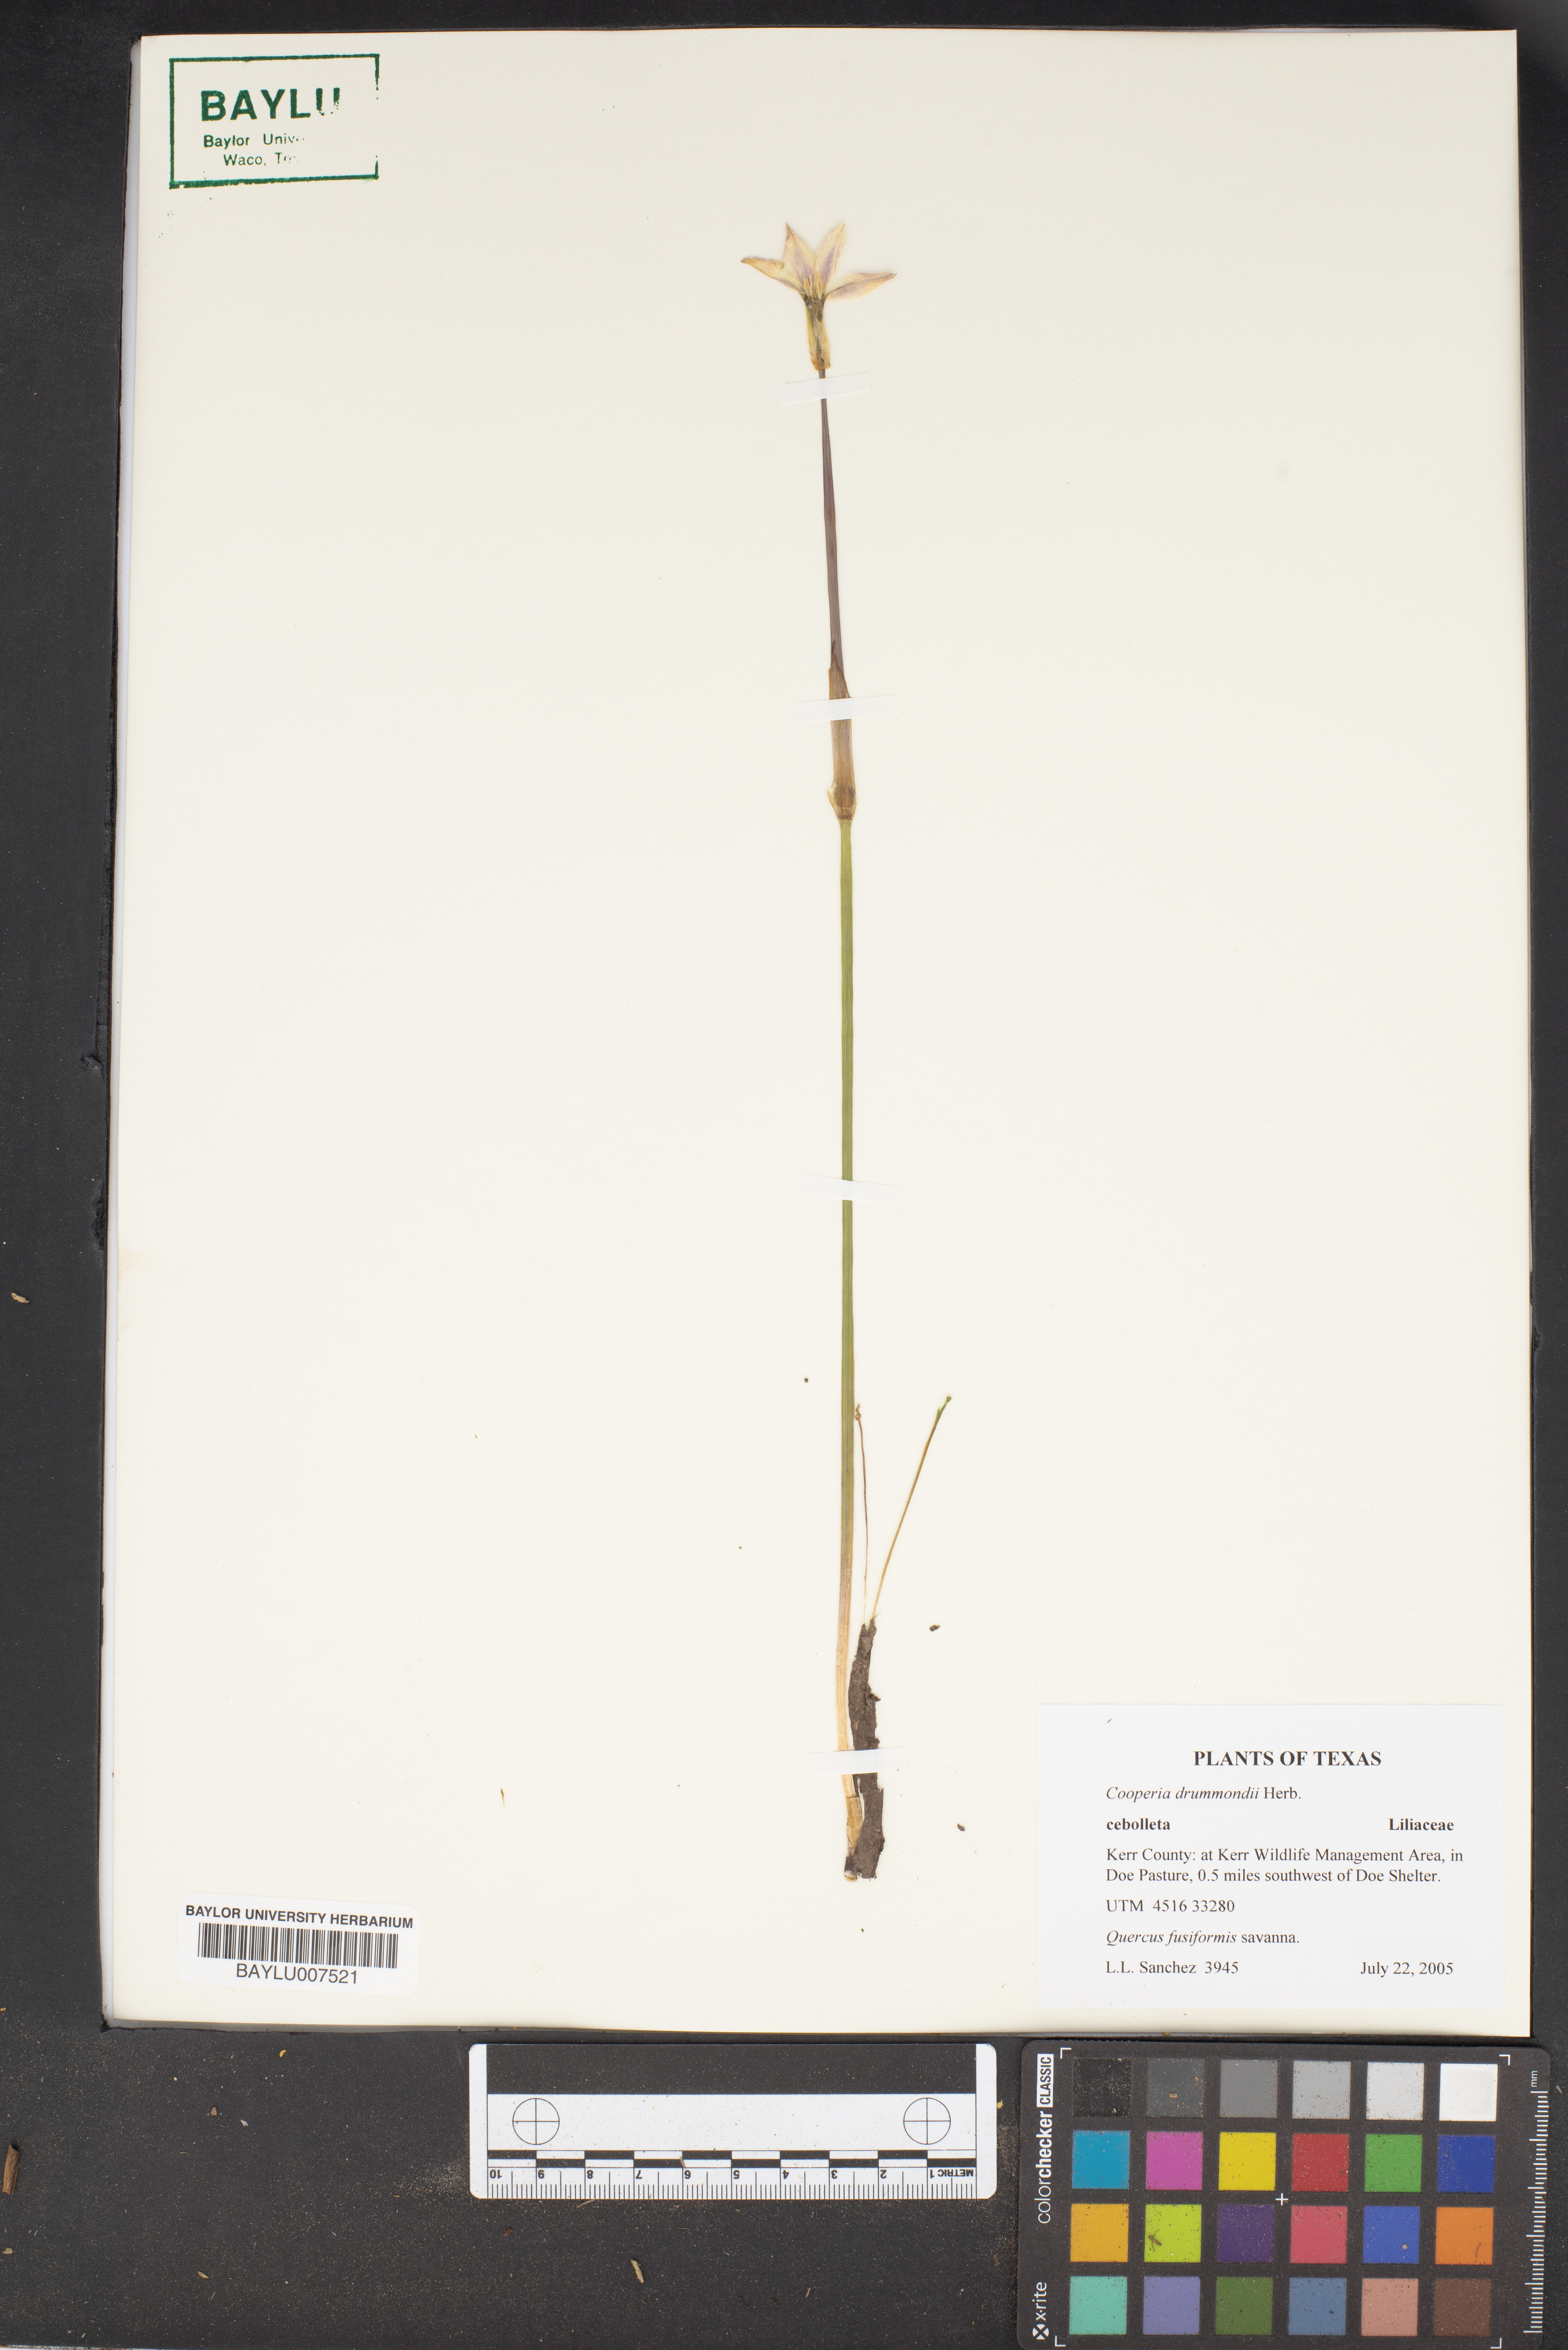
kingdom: Plantae
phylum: Tracheophyta
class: Liliopsida
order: Asparagales
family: Amaryllidaceae
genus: Zephyranthes
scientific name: Zephyranthes chlorosolen
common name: Evening rain-lily
